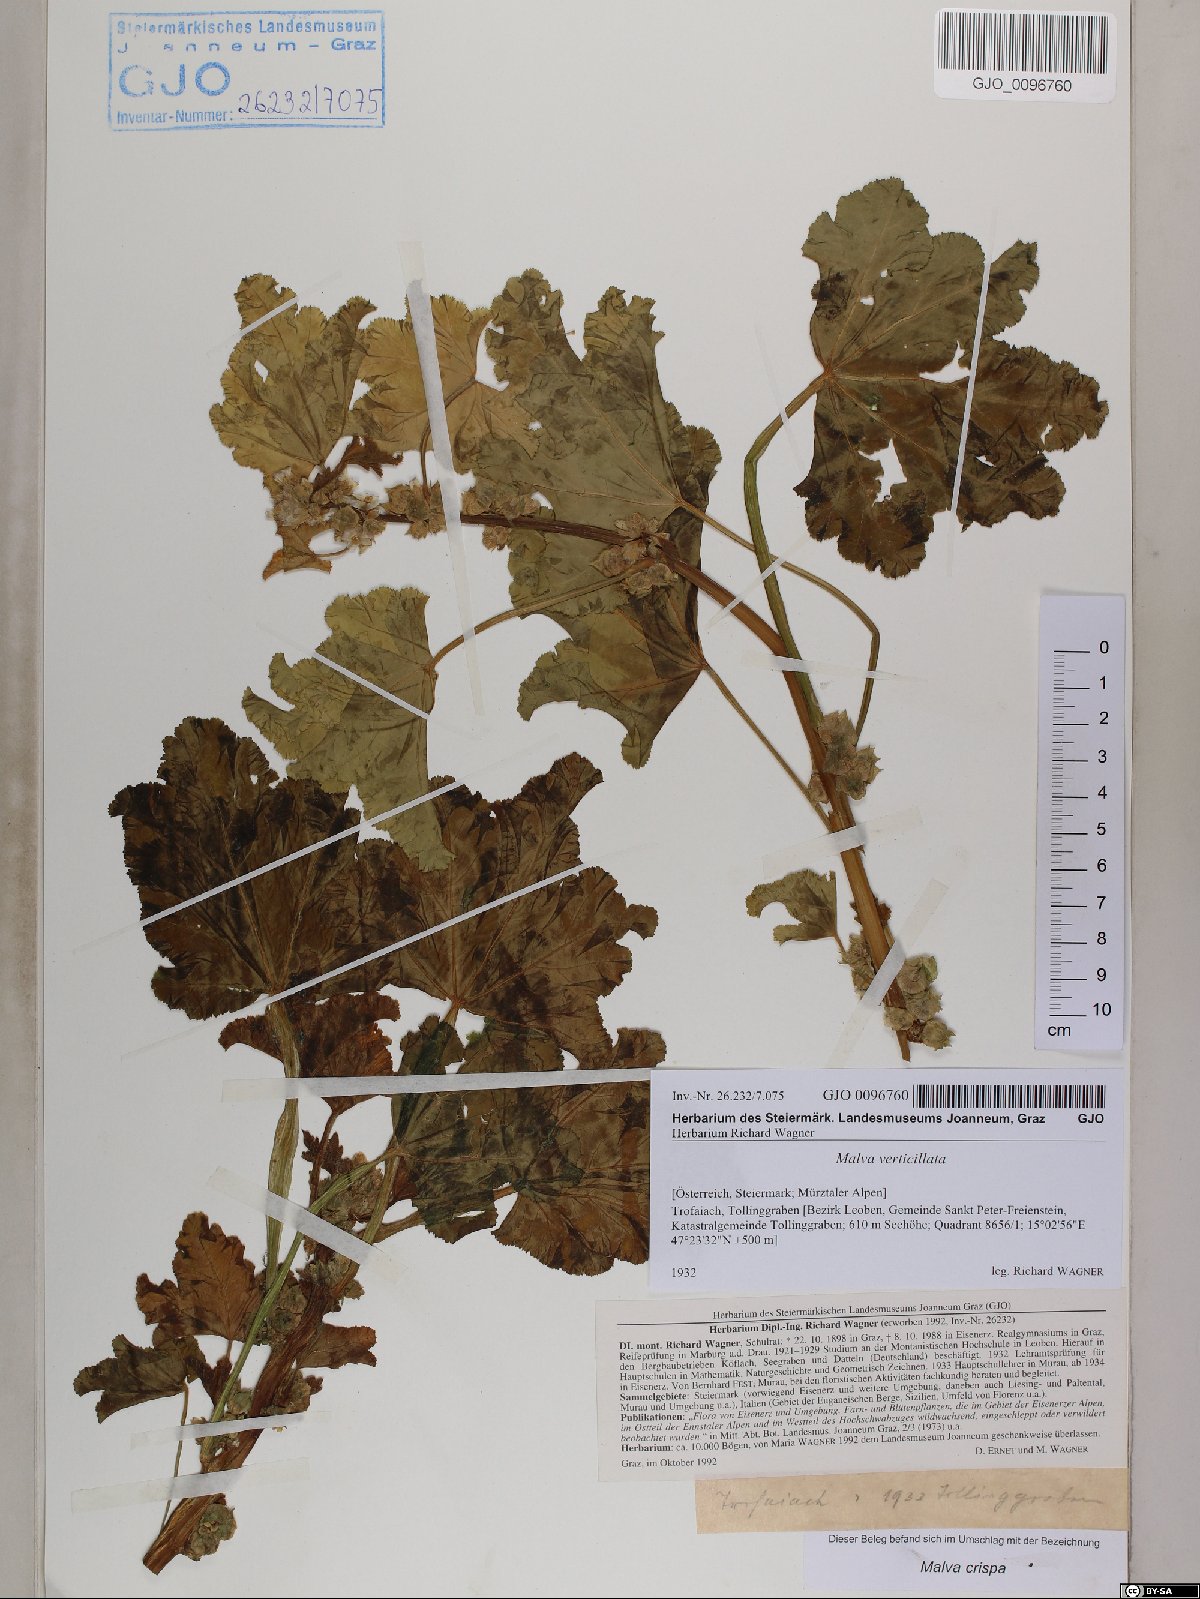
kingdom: Plantae
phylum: Tracheophyta
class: Magnoliopsida
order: Malvales
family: Malvaceae
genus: Malva
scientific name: Malva verticillata
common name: Chinese mallow
